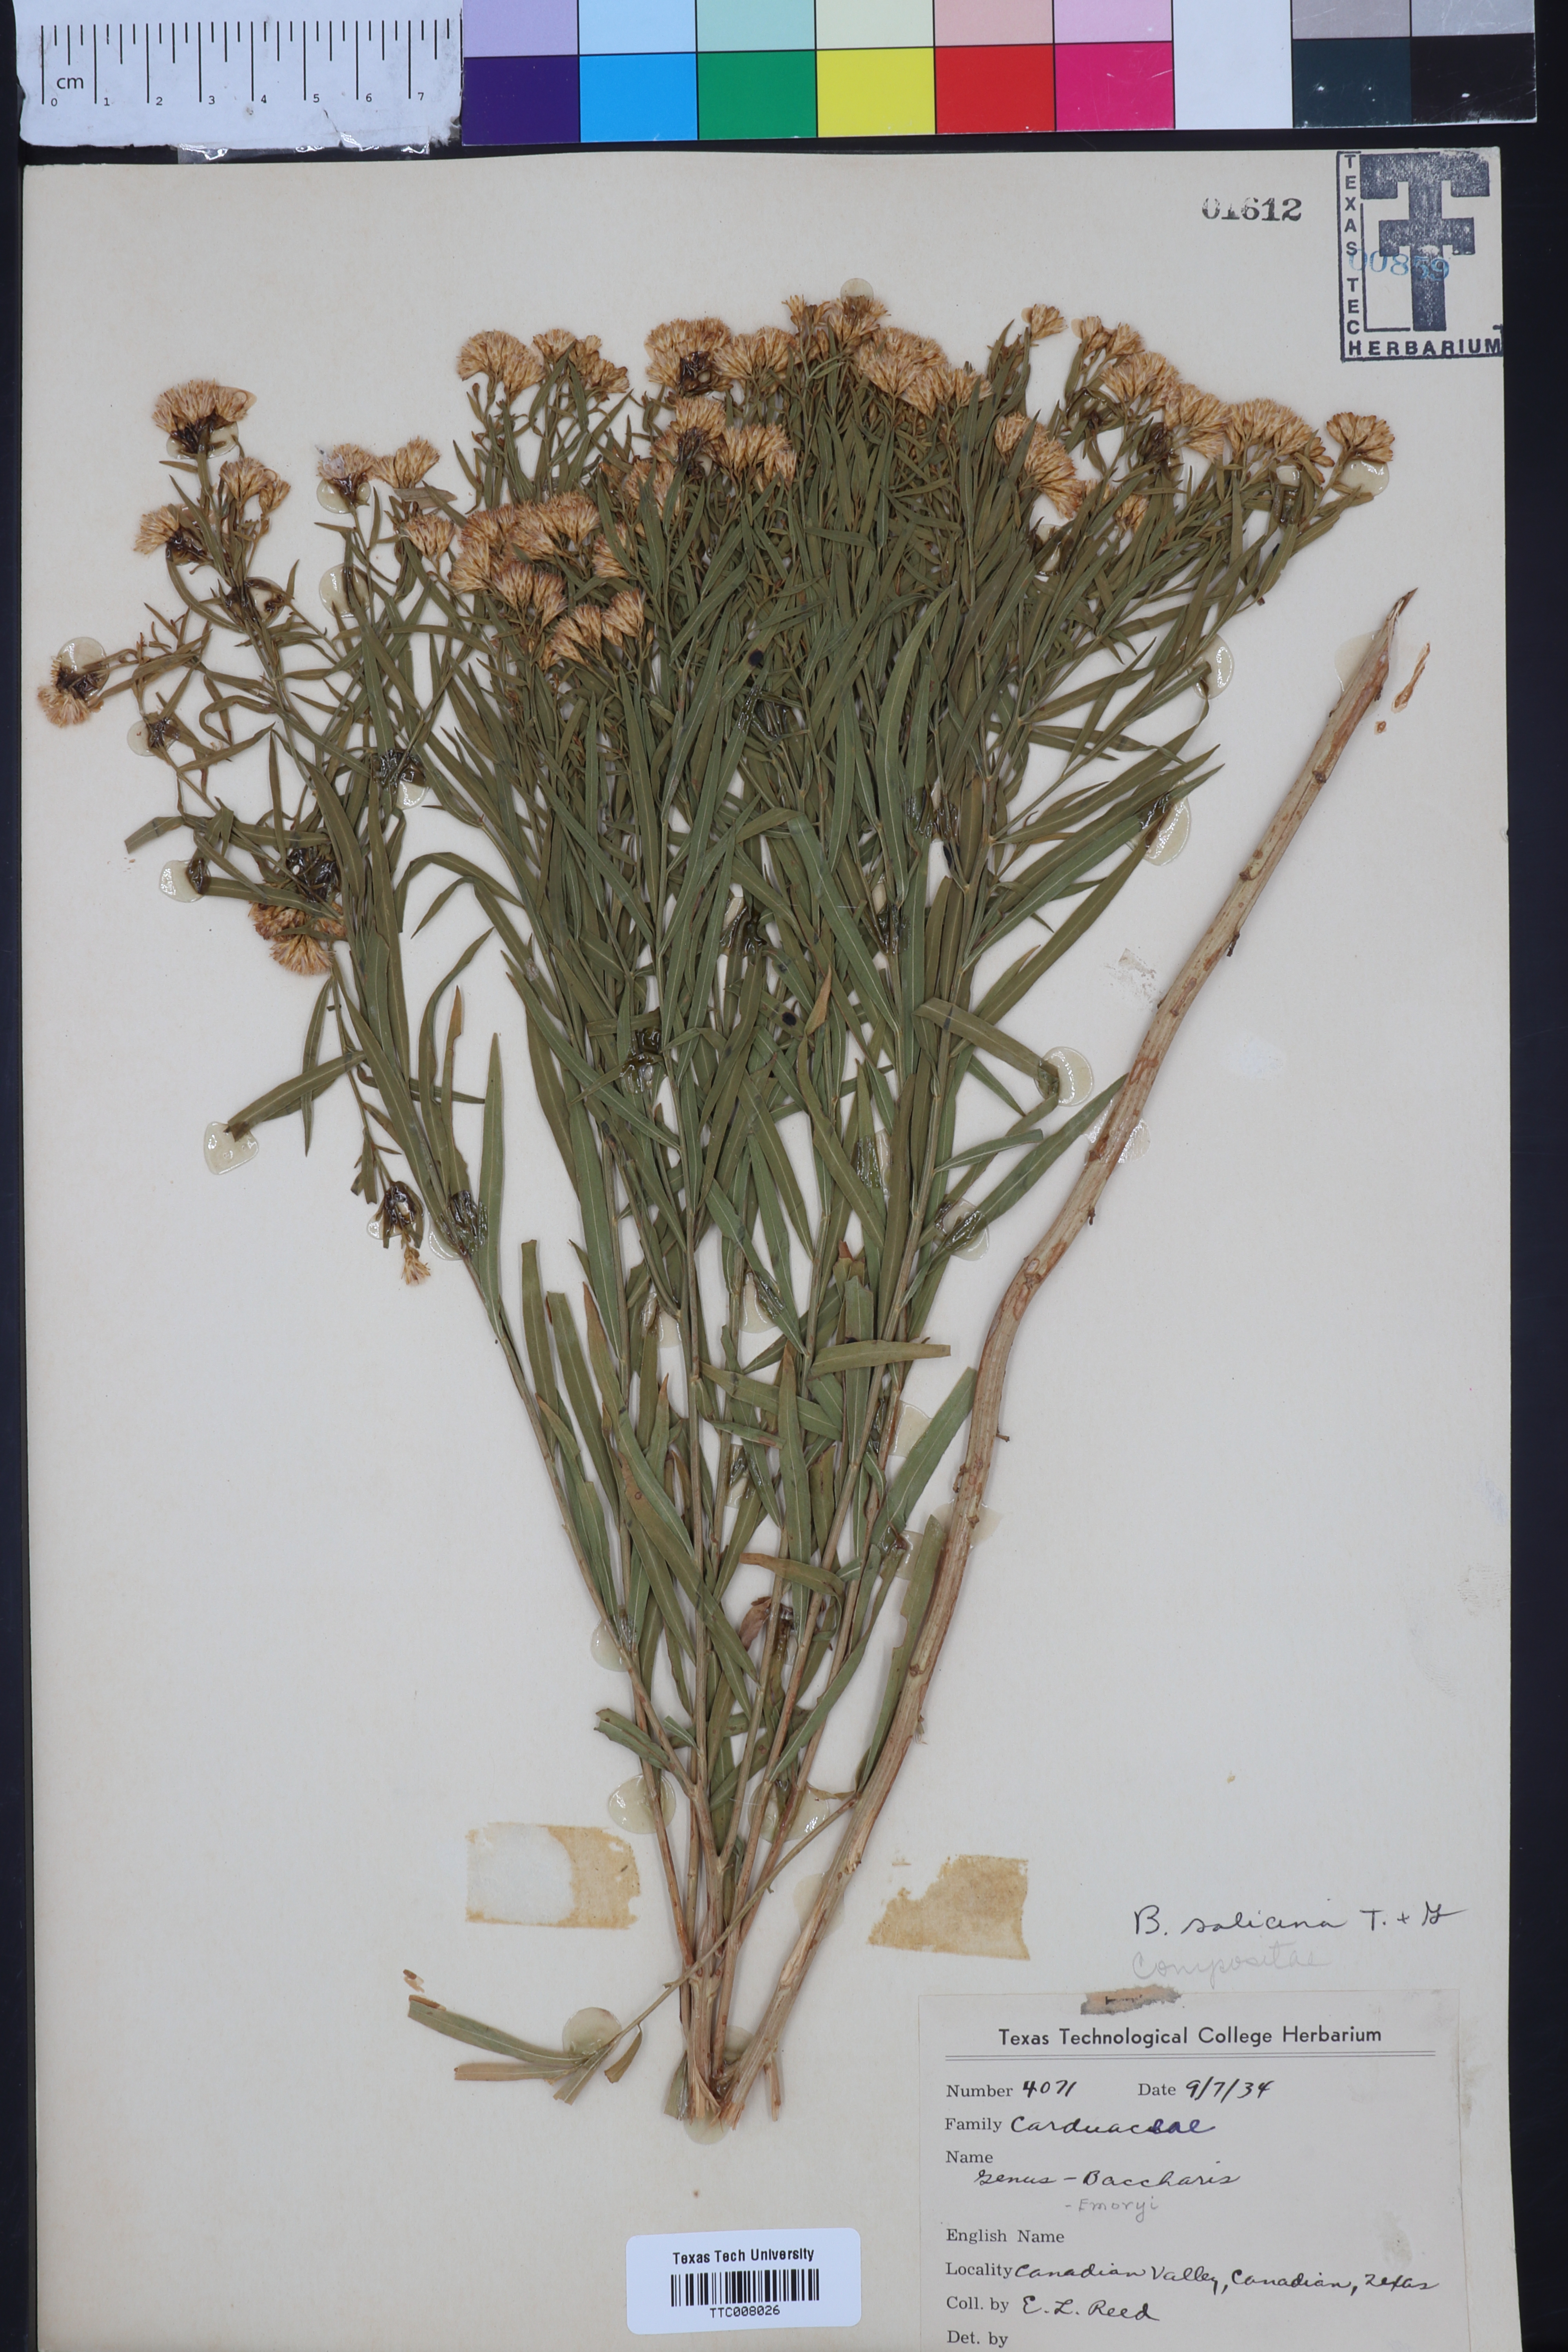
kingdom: Plantae
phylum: Tracheophyta
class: Magnoliopsida
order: Asterales
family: Asteraceae
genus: Baccharis
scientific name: Baccharis salicina
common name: Willow baccharis
